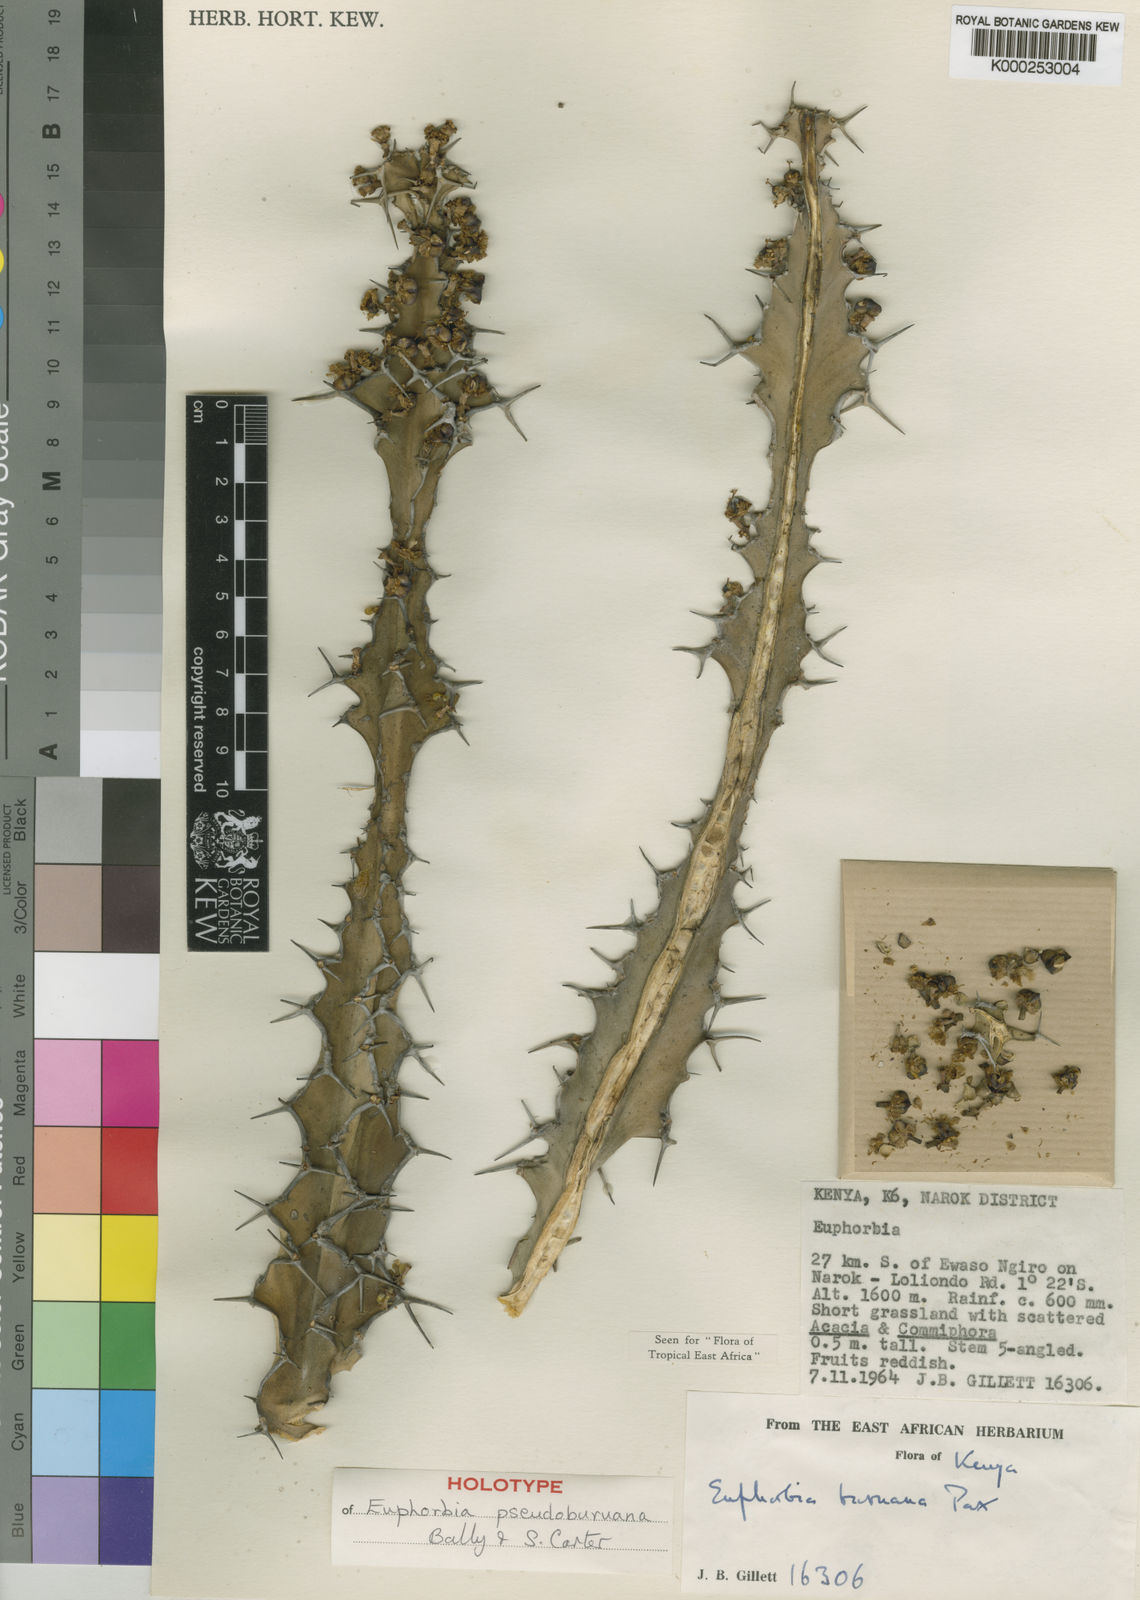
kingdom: Plantae
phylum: Tracheophyta
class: Magnoliopsida
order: Malpighiales
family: Euphorbiaceae
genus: Euphorbia
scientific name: Euphorbia pseudoburuana
